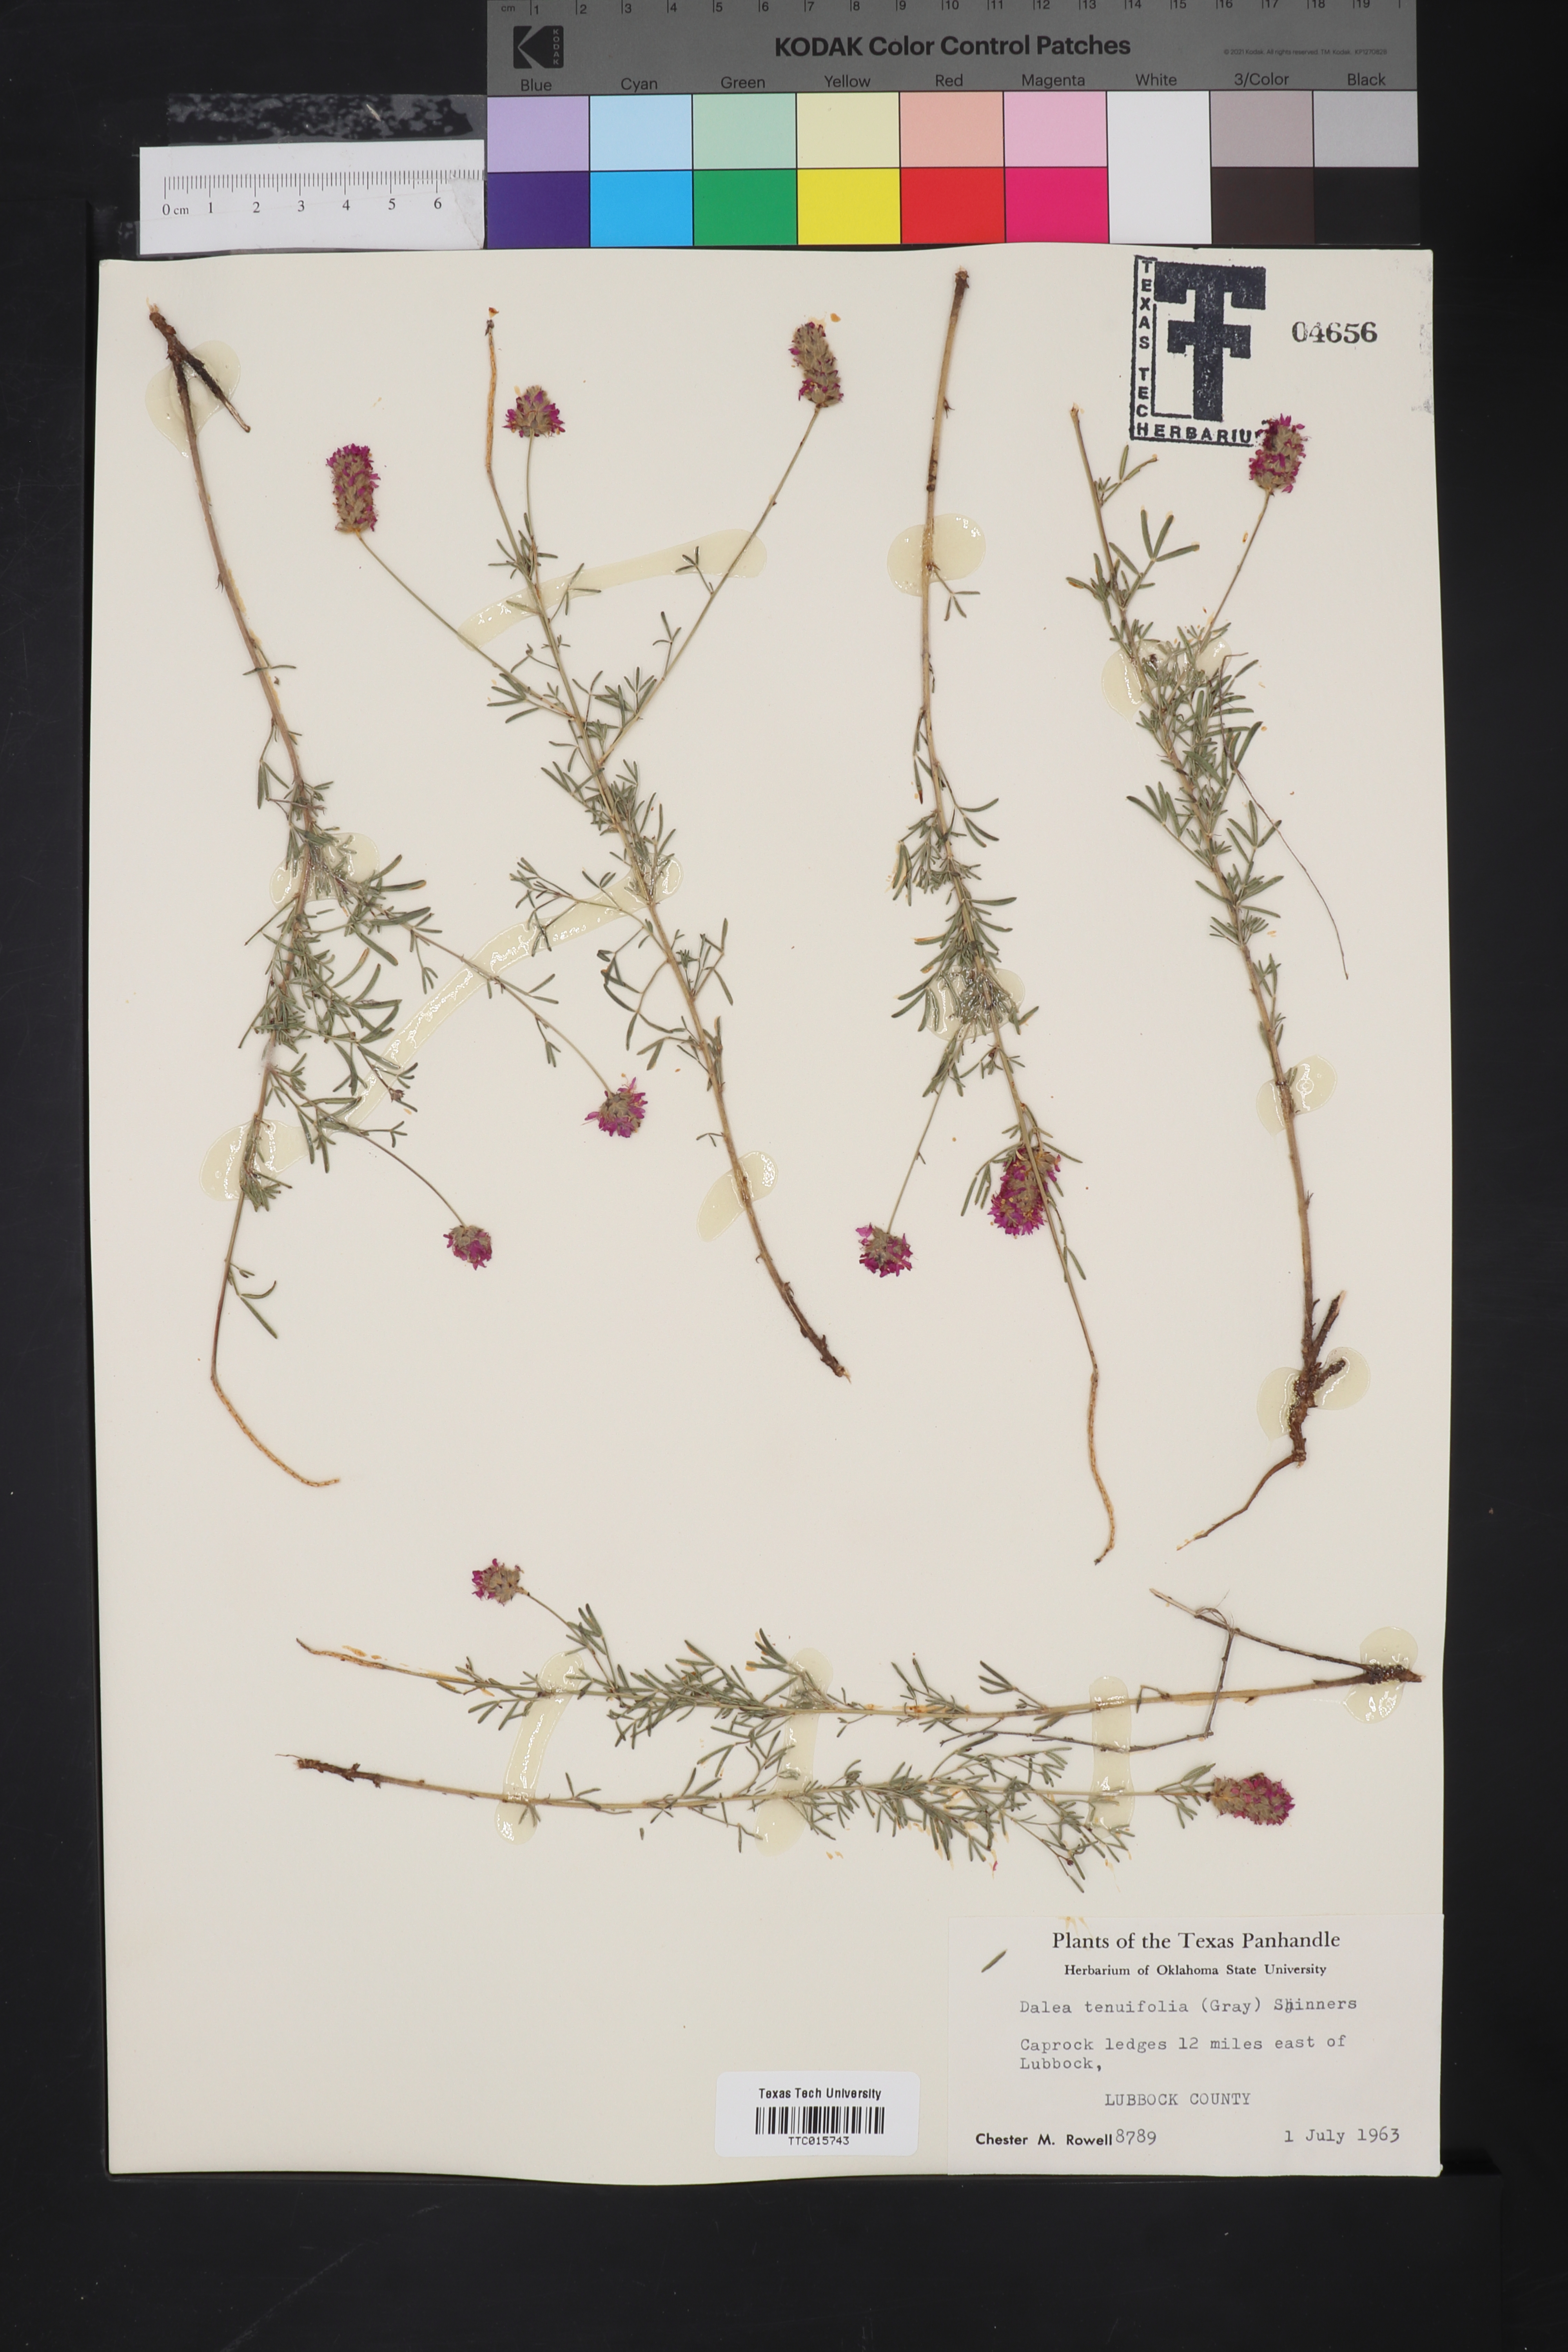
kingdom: Plantae
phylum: Tracheophyta
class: Magnoliopsida
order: Fabales
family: Fabaceae
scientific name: Fabaceae
